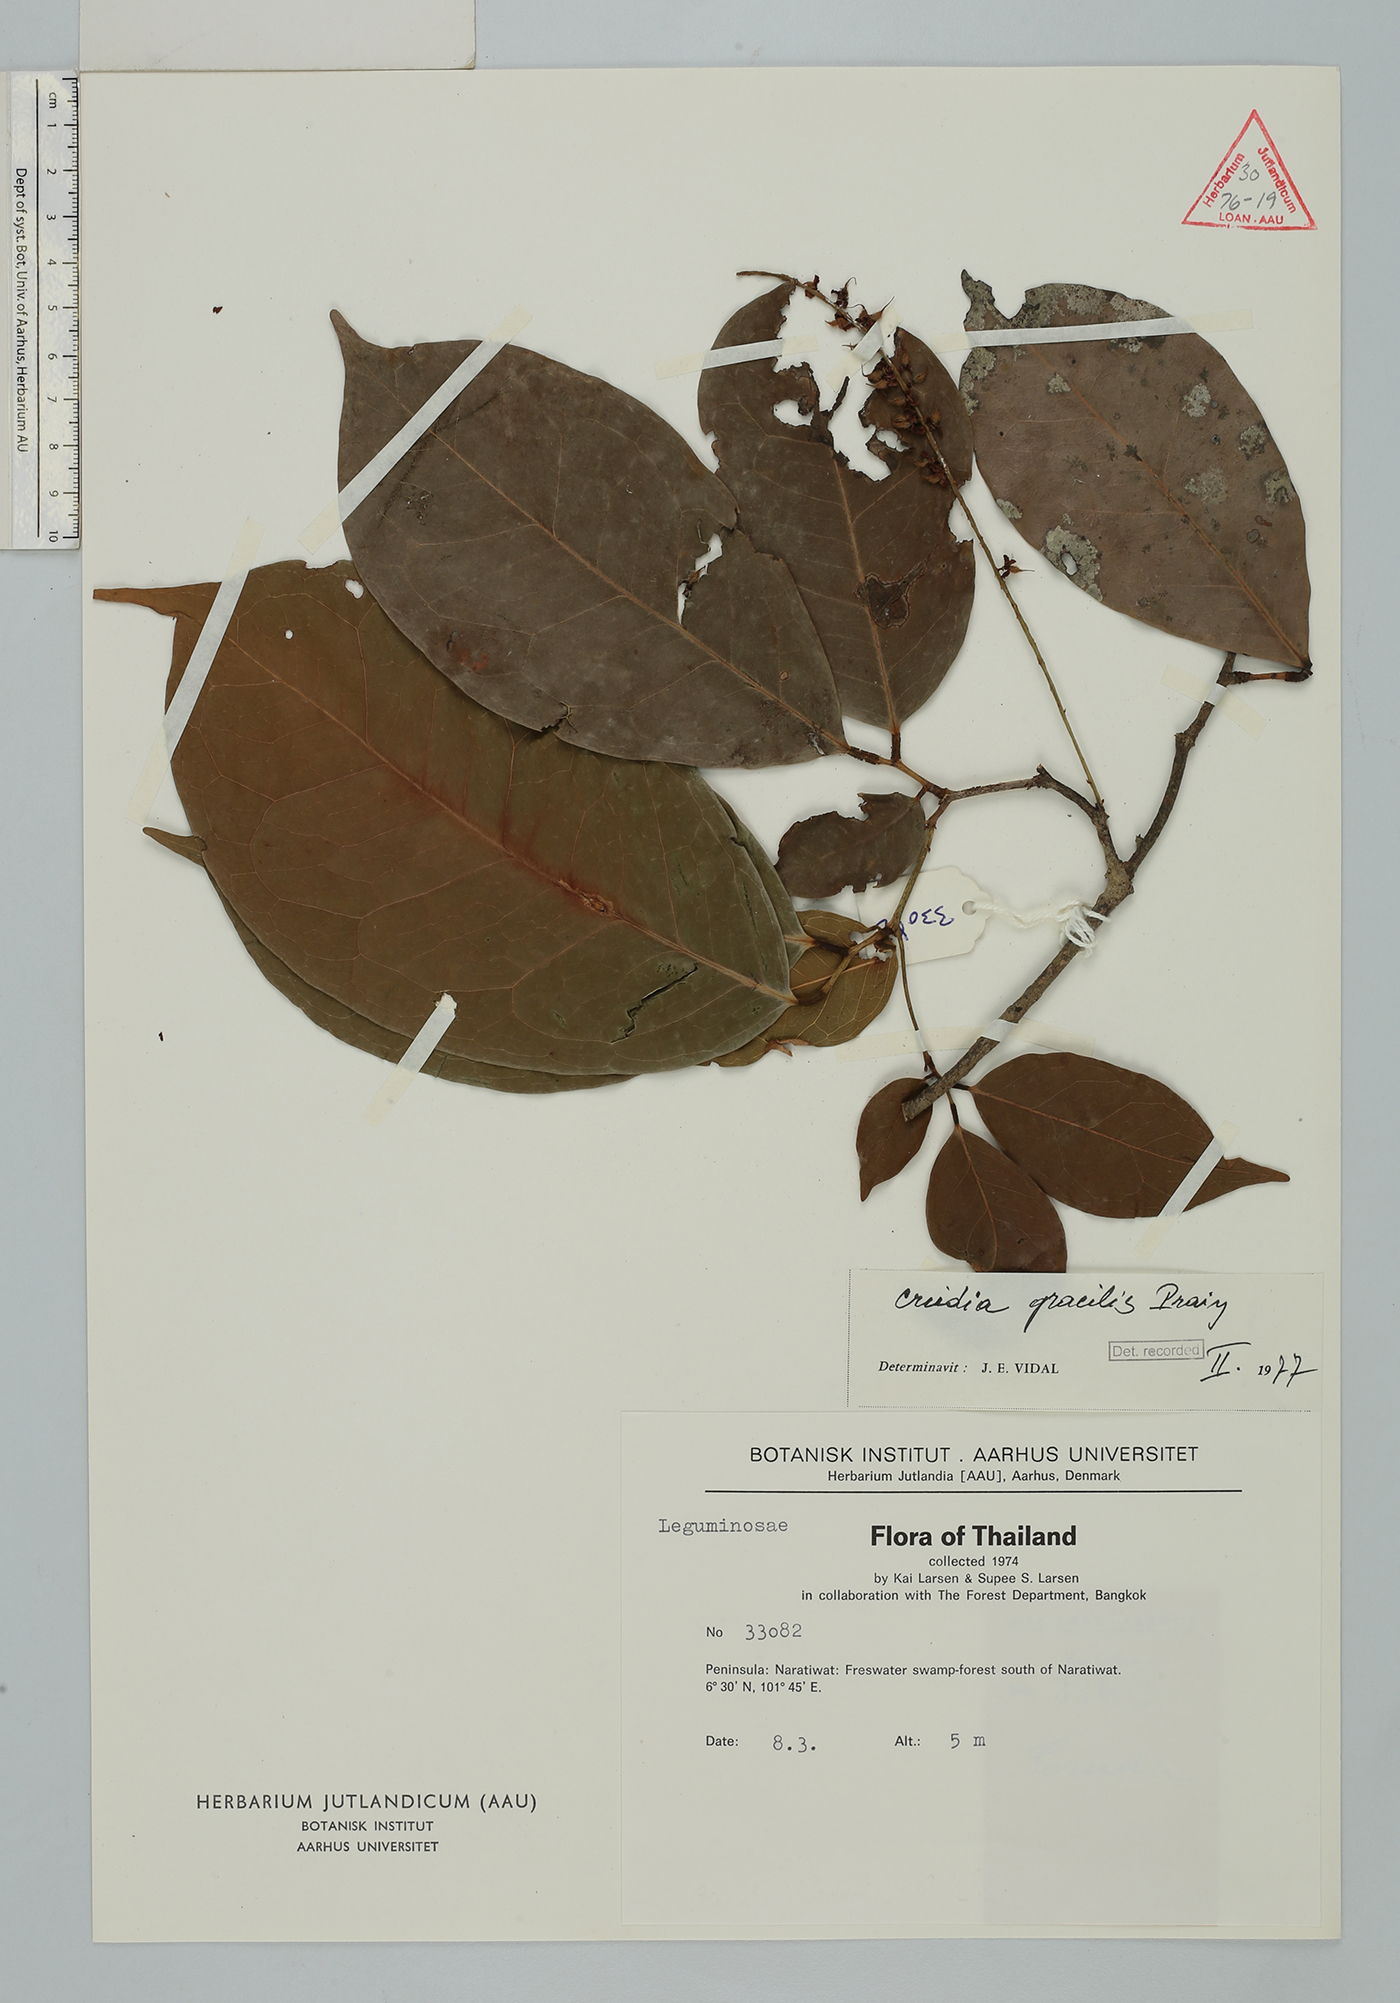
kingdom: Plantae
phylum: Tracheophyta
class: Magnoliopsida
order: Fabales
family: Fabaceae
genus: Crudia
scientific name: Crudia gracilis
